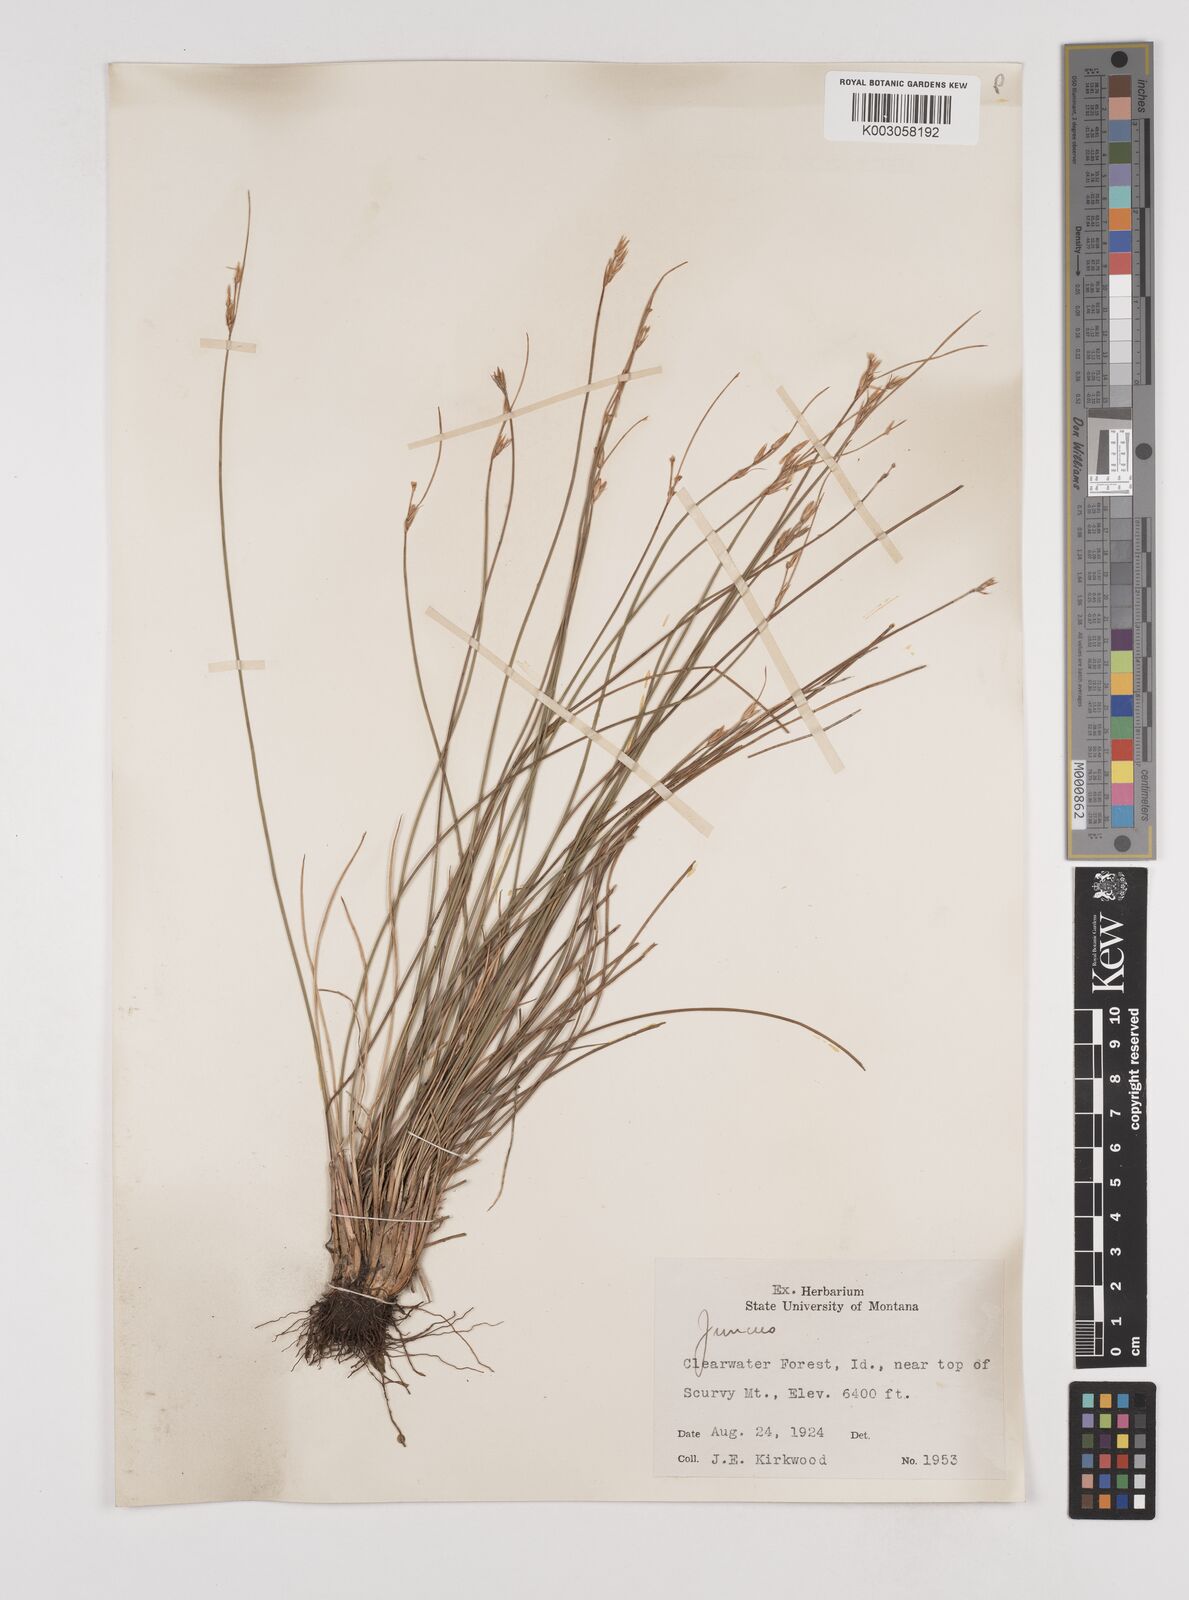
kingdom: Plantae
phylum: Tracheophyta
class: Liliopsida
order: Poales
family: Juncaceae
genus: Juncus
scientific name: Juncus
